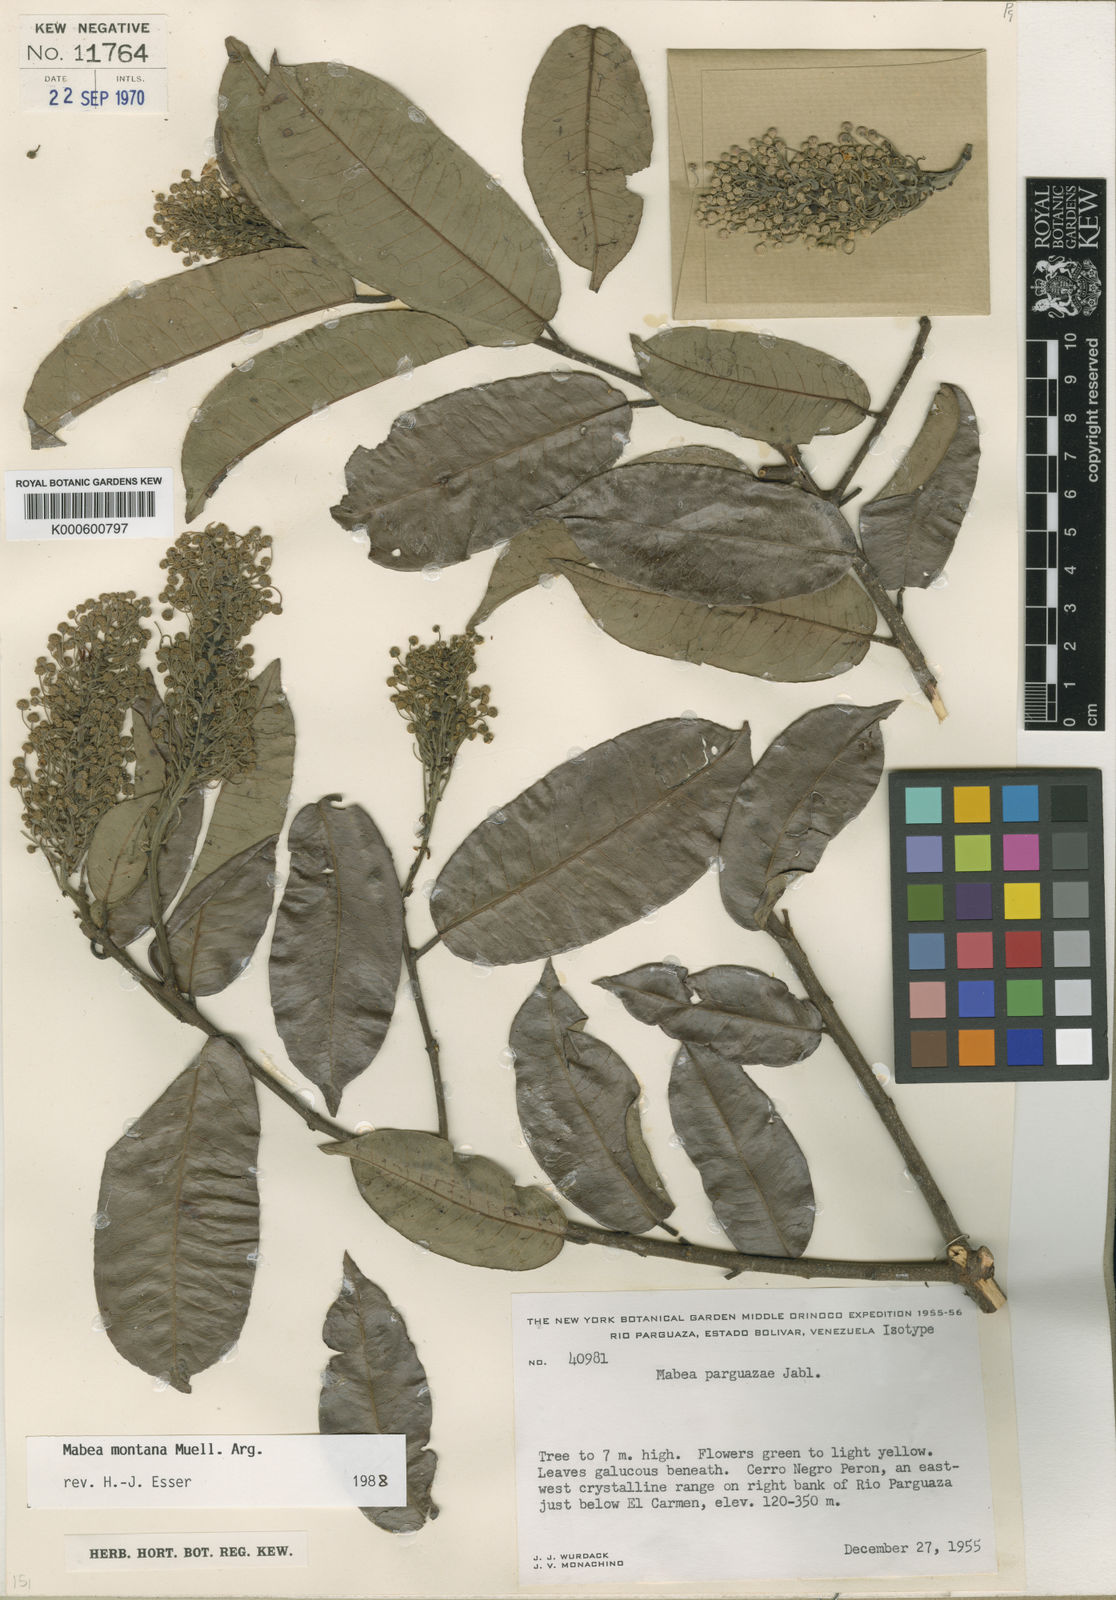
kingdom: Plantae
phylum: Tracheophyta
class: Magnoliopsida
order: Malpighiales
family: Euphorbiaceae
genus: Mabea
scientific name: Mabea montana
